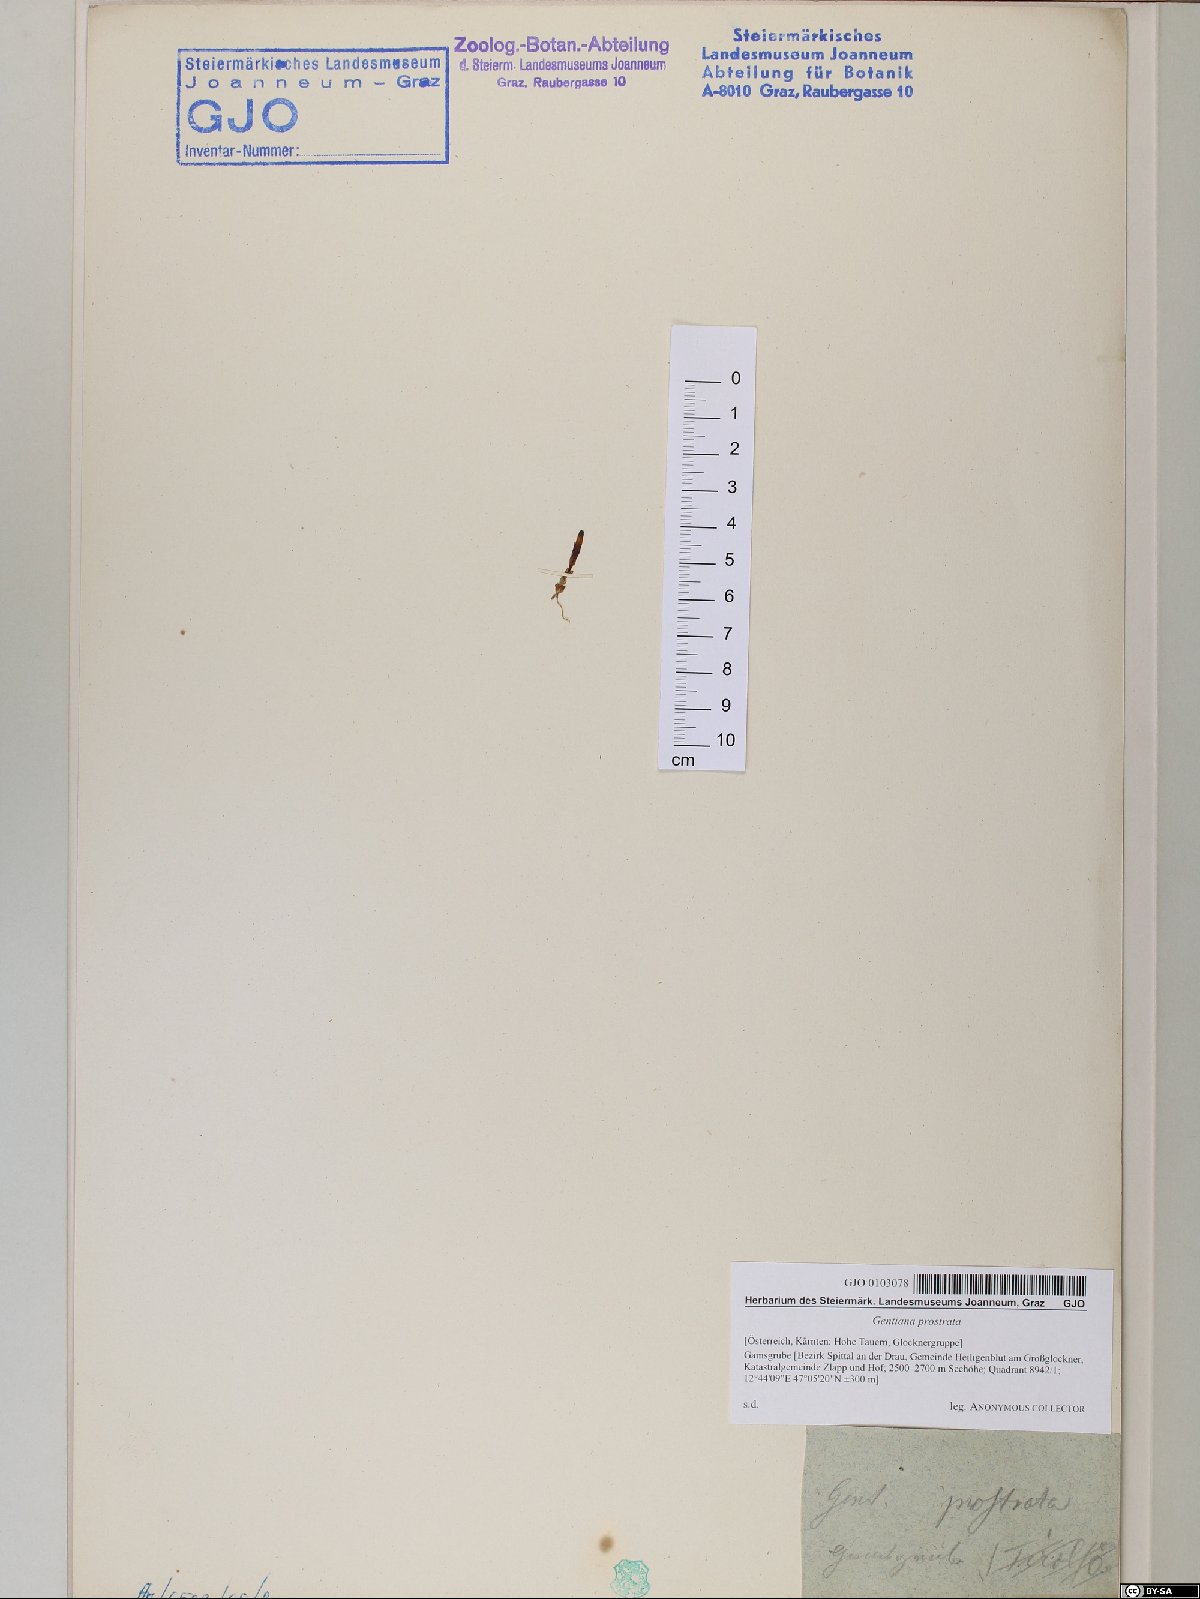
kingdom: Plantae
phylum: Tracheophyta
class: Magnoliopsida
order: Gentianales
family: Gentianaceae
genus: Gentiana
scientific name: Gentiana prostrata
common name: Moss gentian
